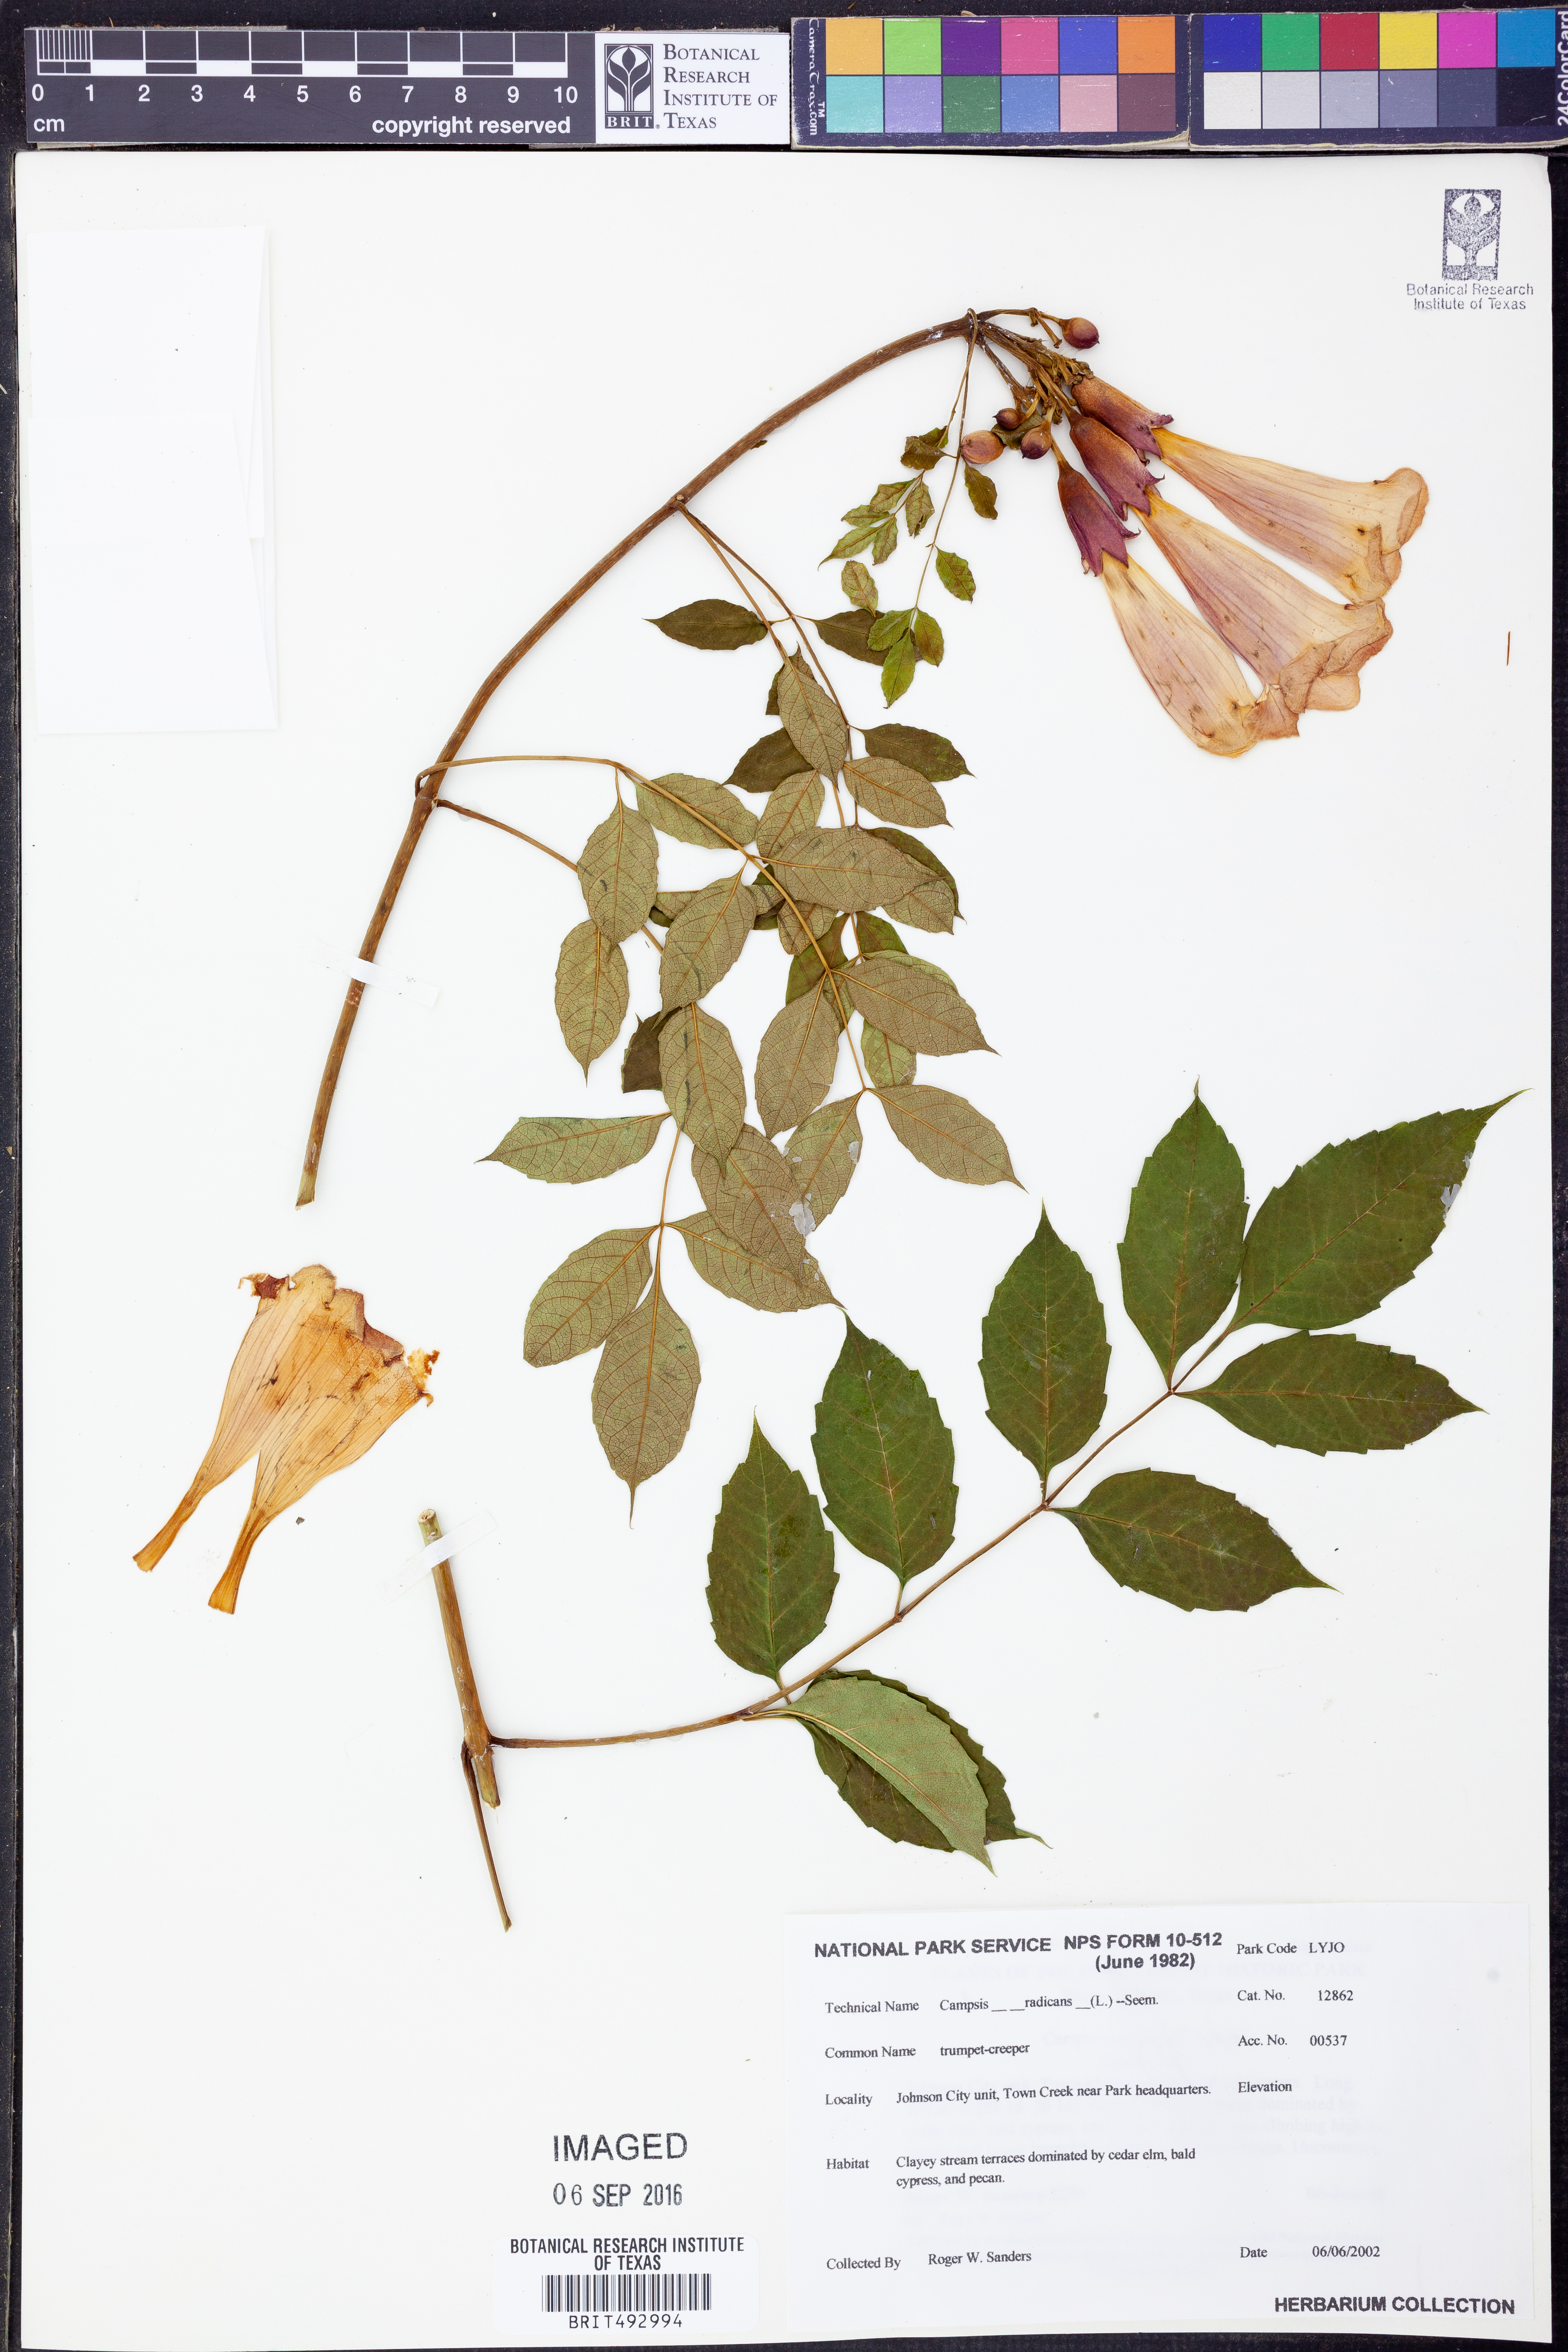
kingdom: Plantae
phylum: Tracheophyta
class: Magnoliopsida
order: Lamiales
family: Bignoniaceae
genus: Campsis
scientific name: Campsis radicans
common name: Trumpet-creeper
